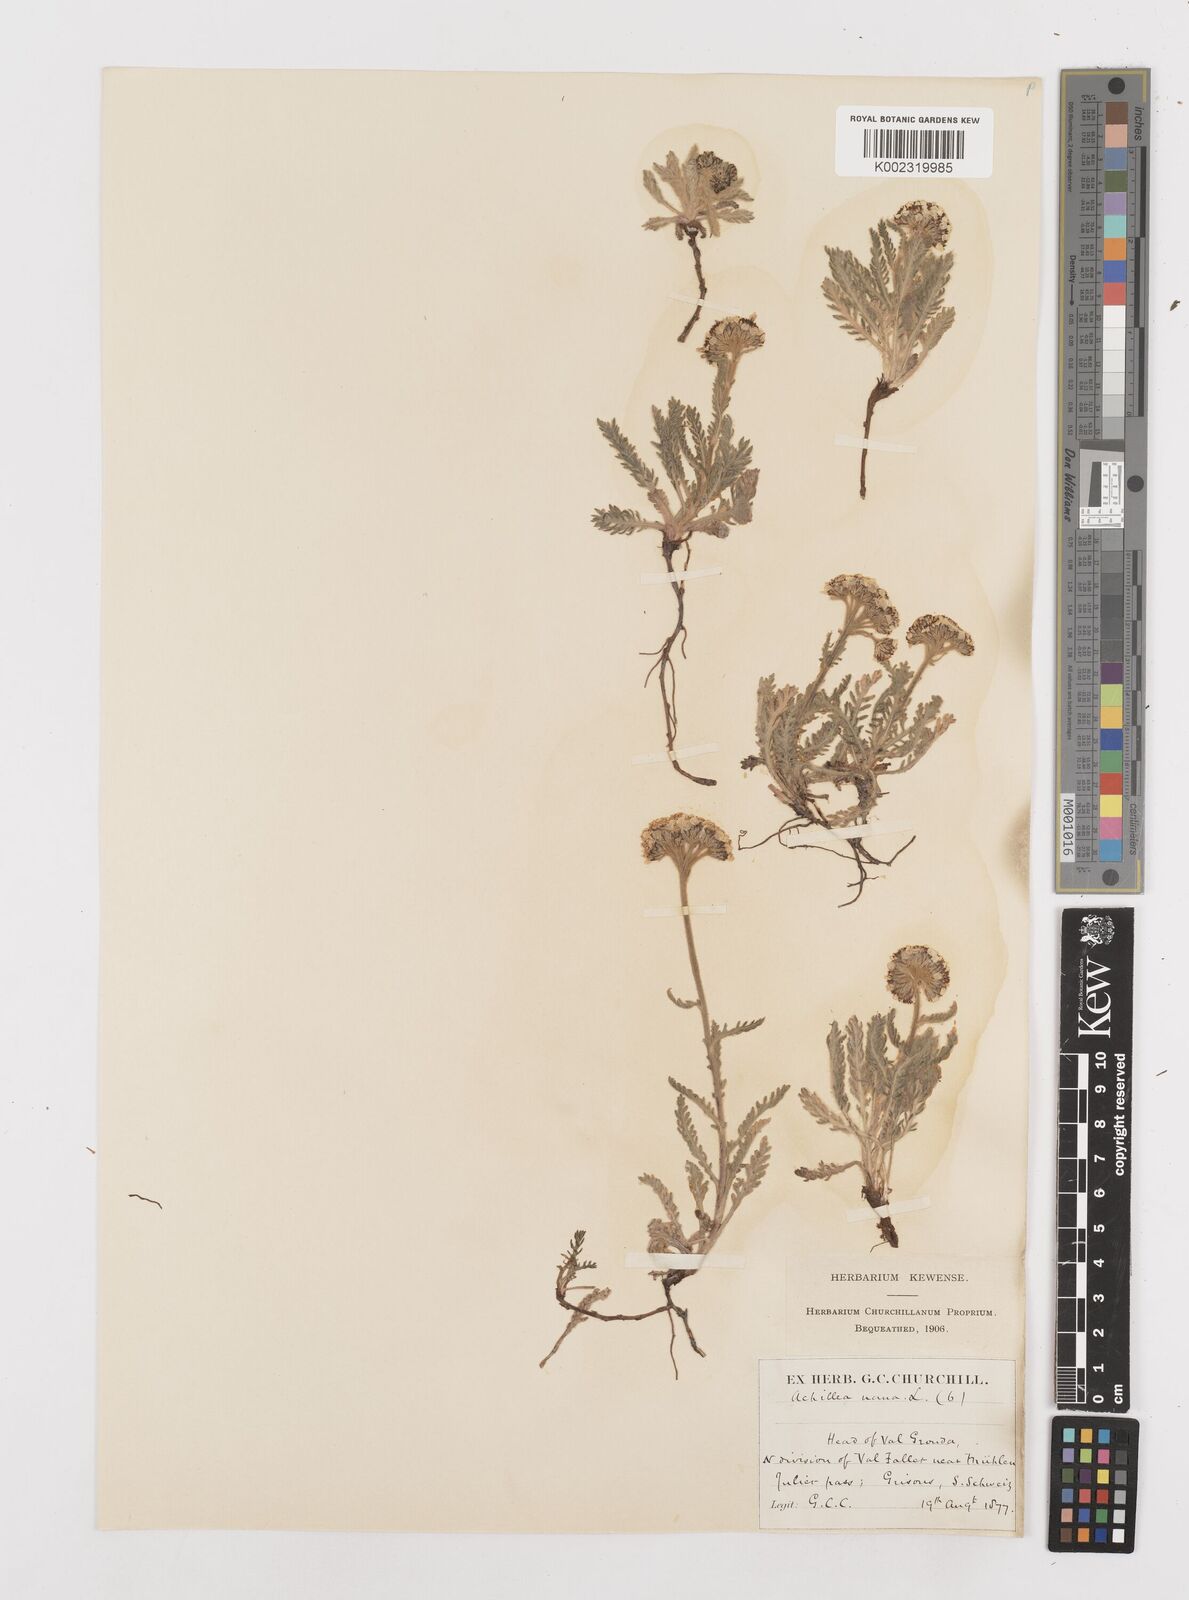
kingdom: Plantae
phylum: Tracheophyta
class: Magnoliopsida
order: Asterales
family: Asteraceae
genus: Achillea
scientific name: Achillea nana
